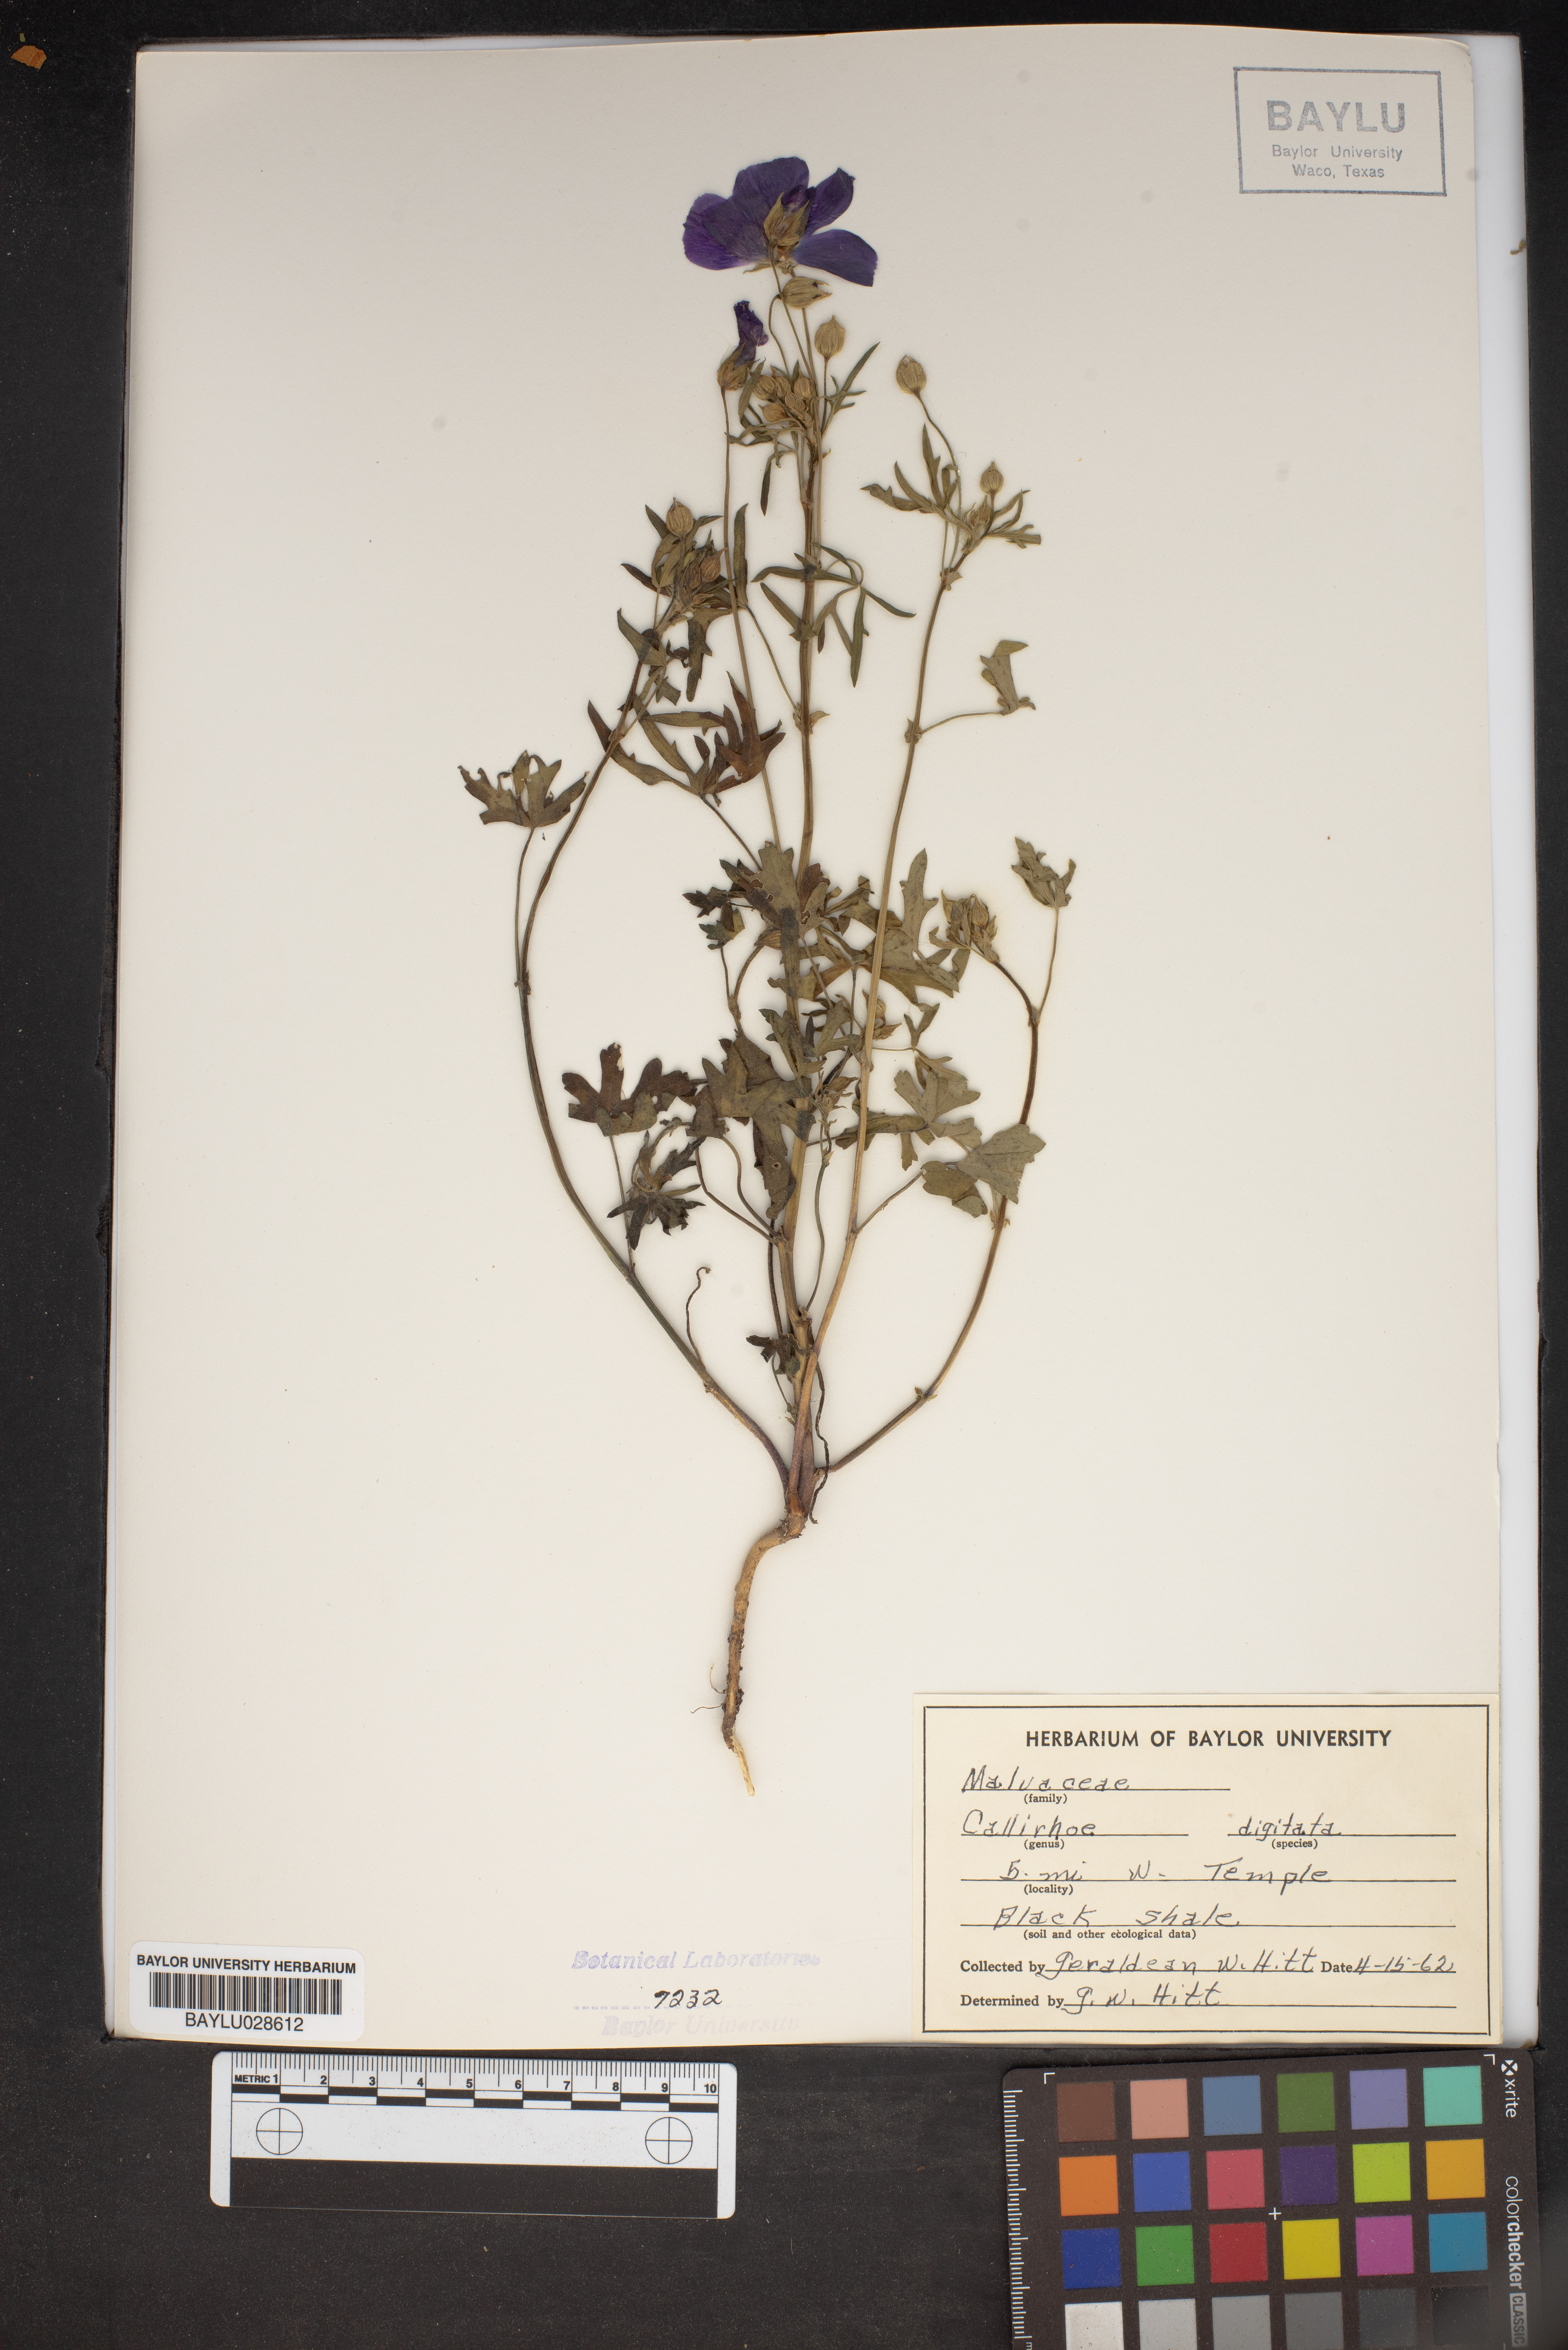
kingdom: Plantae
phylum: Tracheophyta
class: Magnoliopsida
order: Malvales
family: Malvaceae
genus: Callirhoe
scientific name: Callirhoe digitata
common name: Finger poppy-mallow
